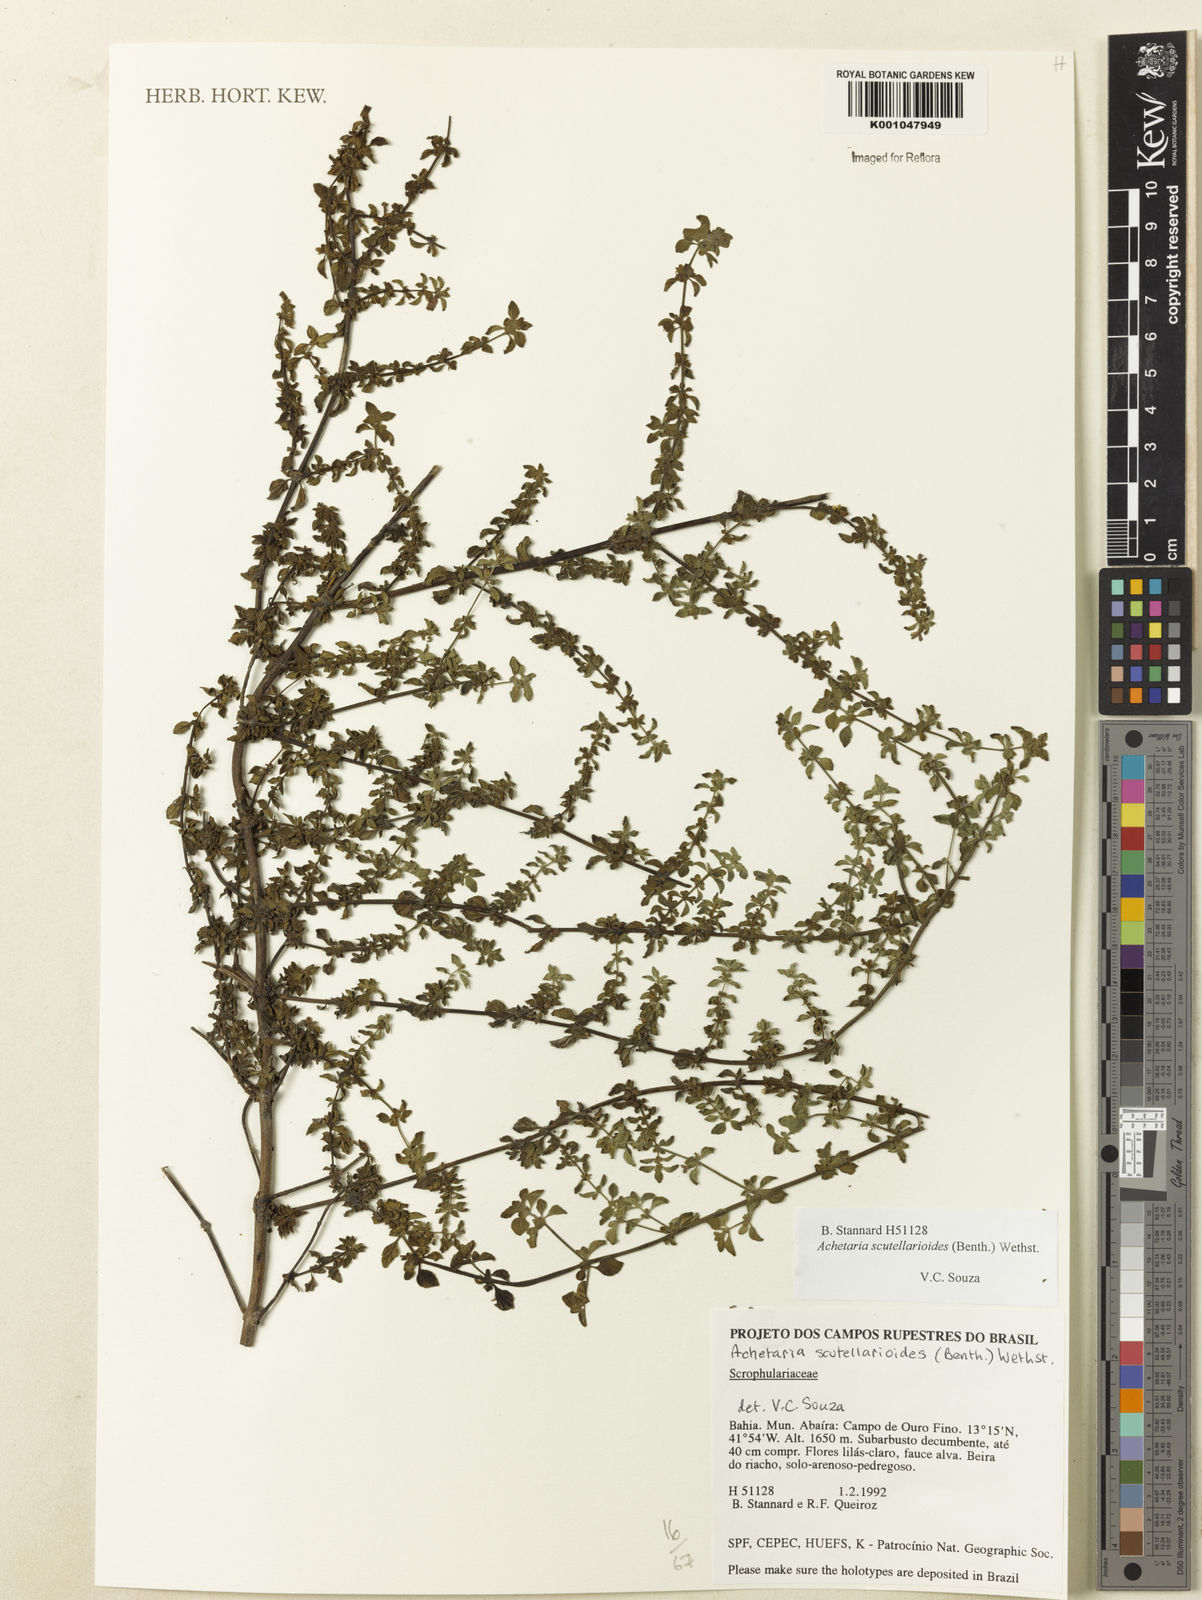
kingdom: Plantae
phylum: Tracheophyta
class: Magnoliopsida
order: Lamiales
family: Plantaginaceae
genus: Matourea
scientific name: Matourea scutellarioides
